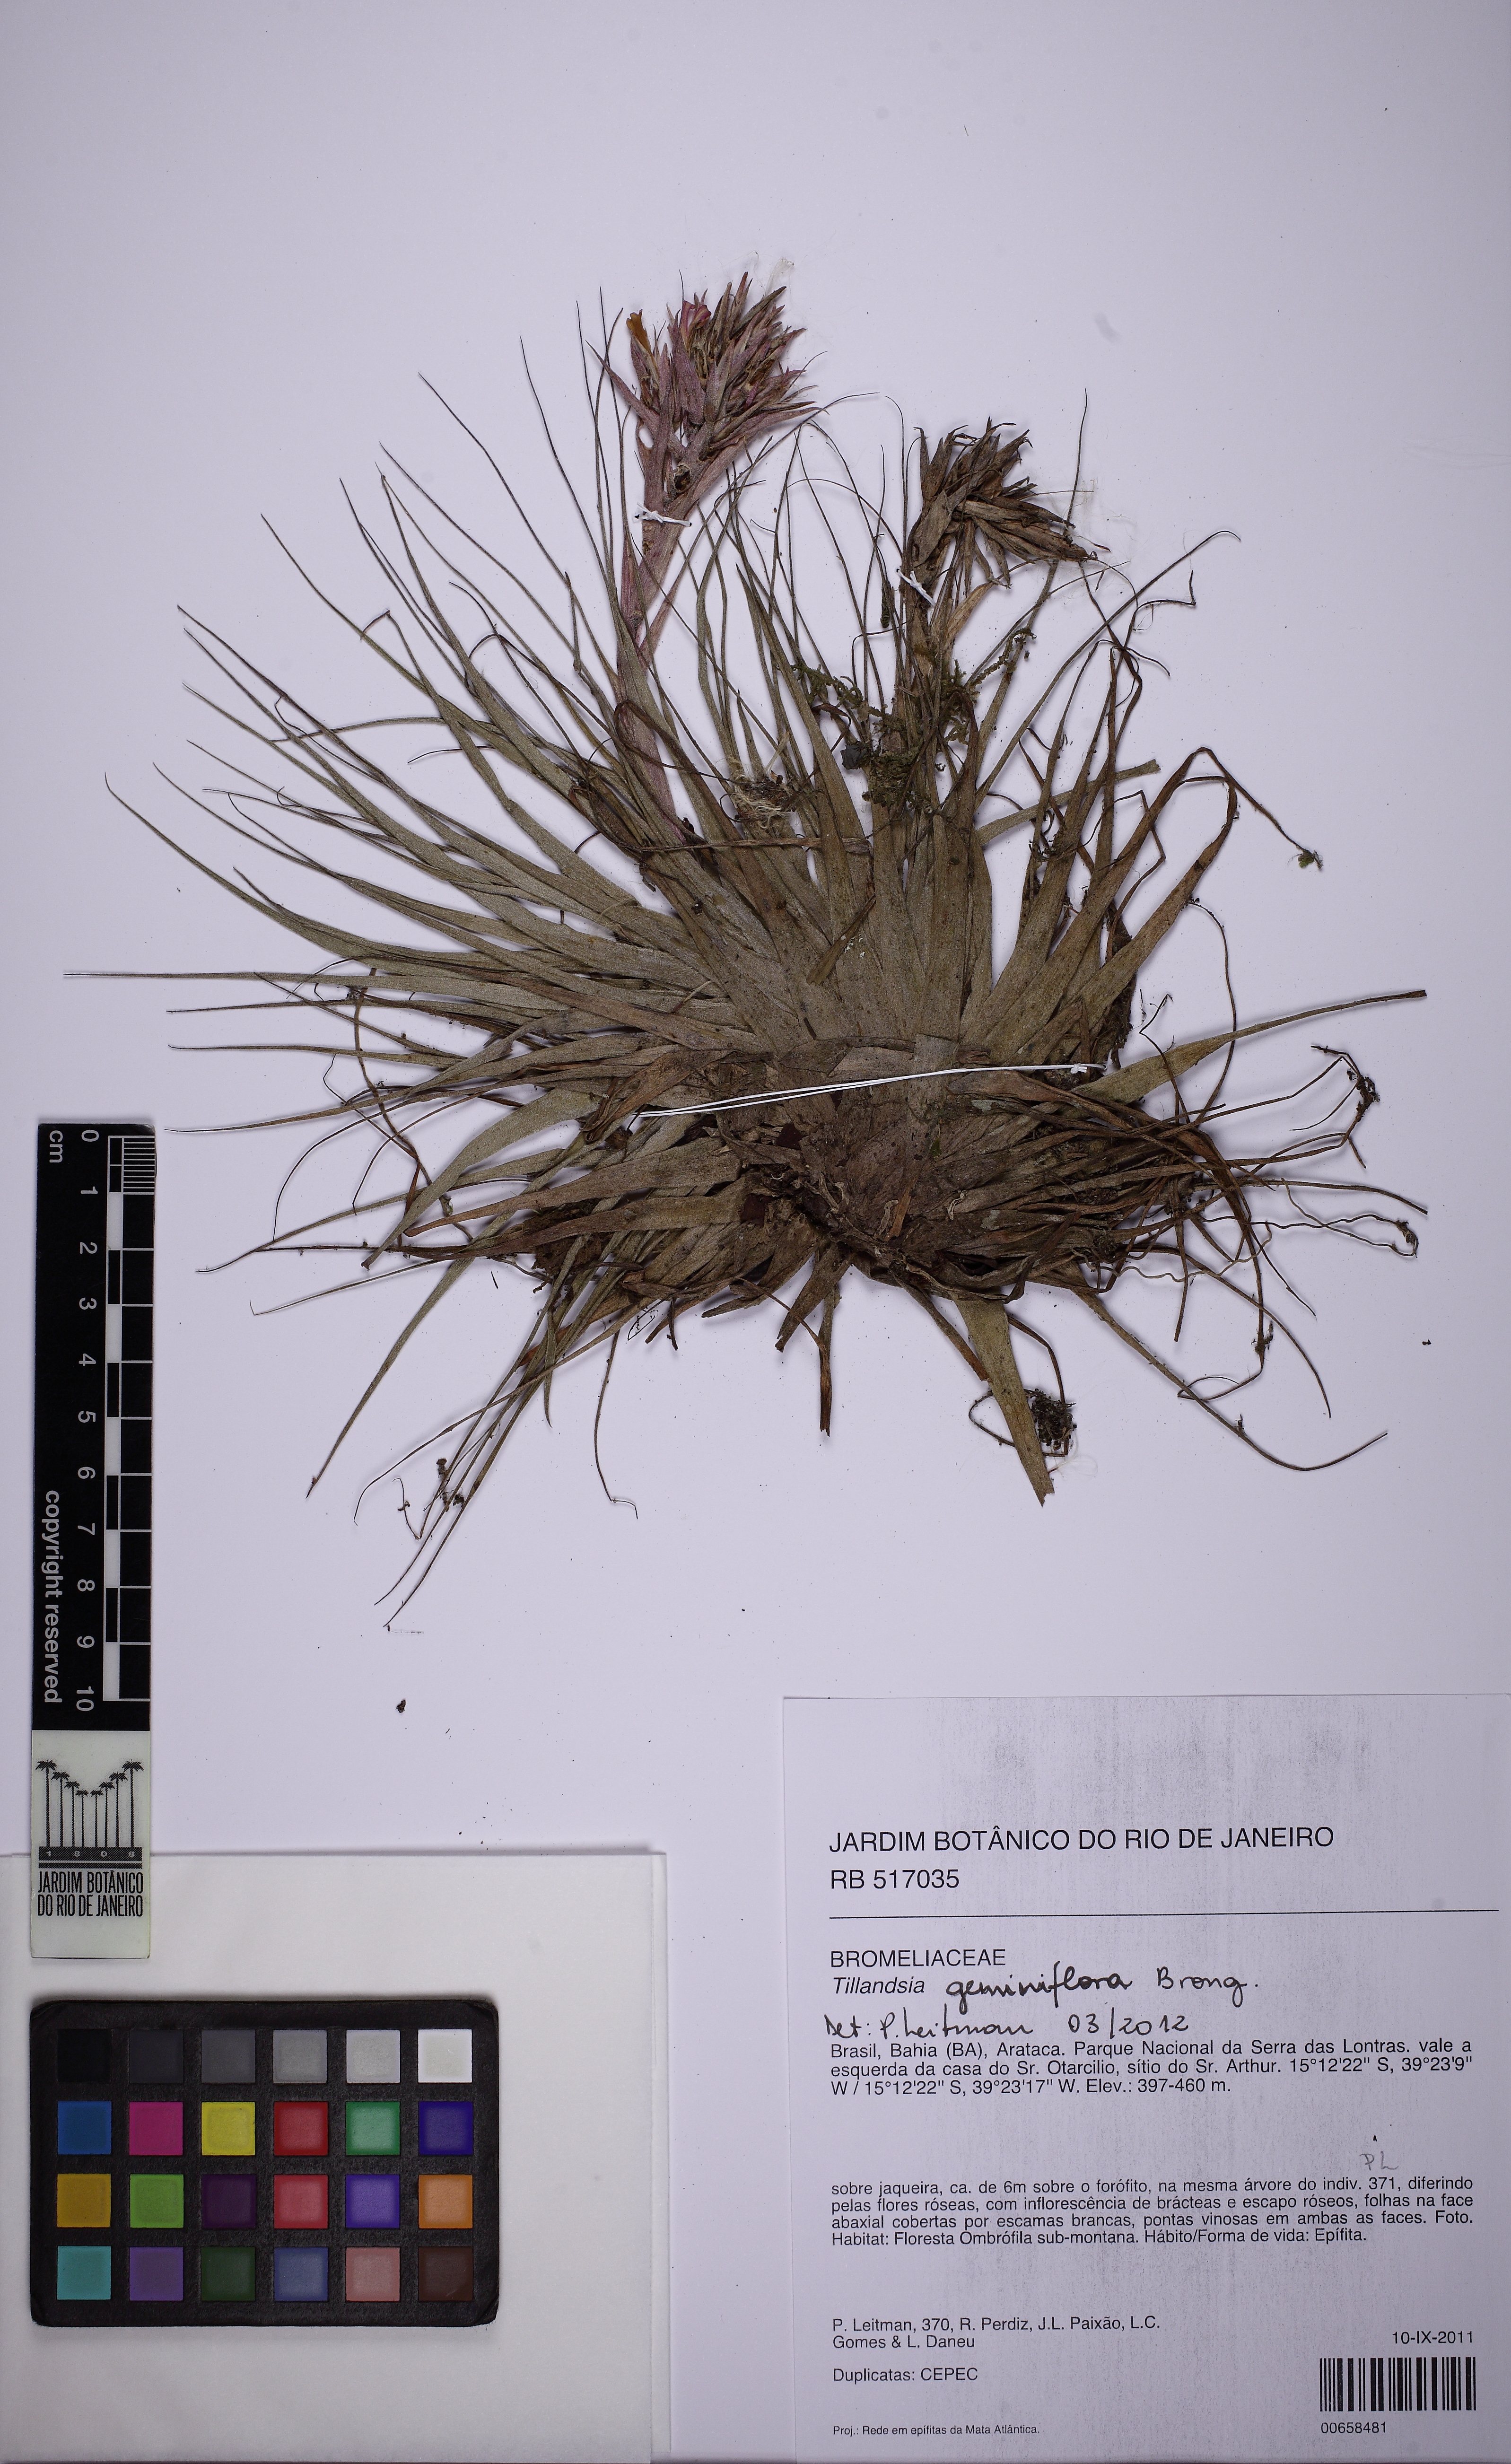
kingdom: Plantae
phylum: Tracheophyta
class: Liliopsida
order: Poales
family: Bromeliaceae
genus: Tillandsia
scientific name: Tillandsia geminiflora
